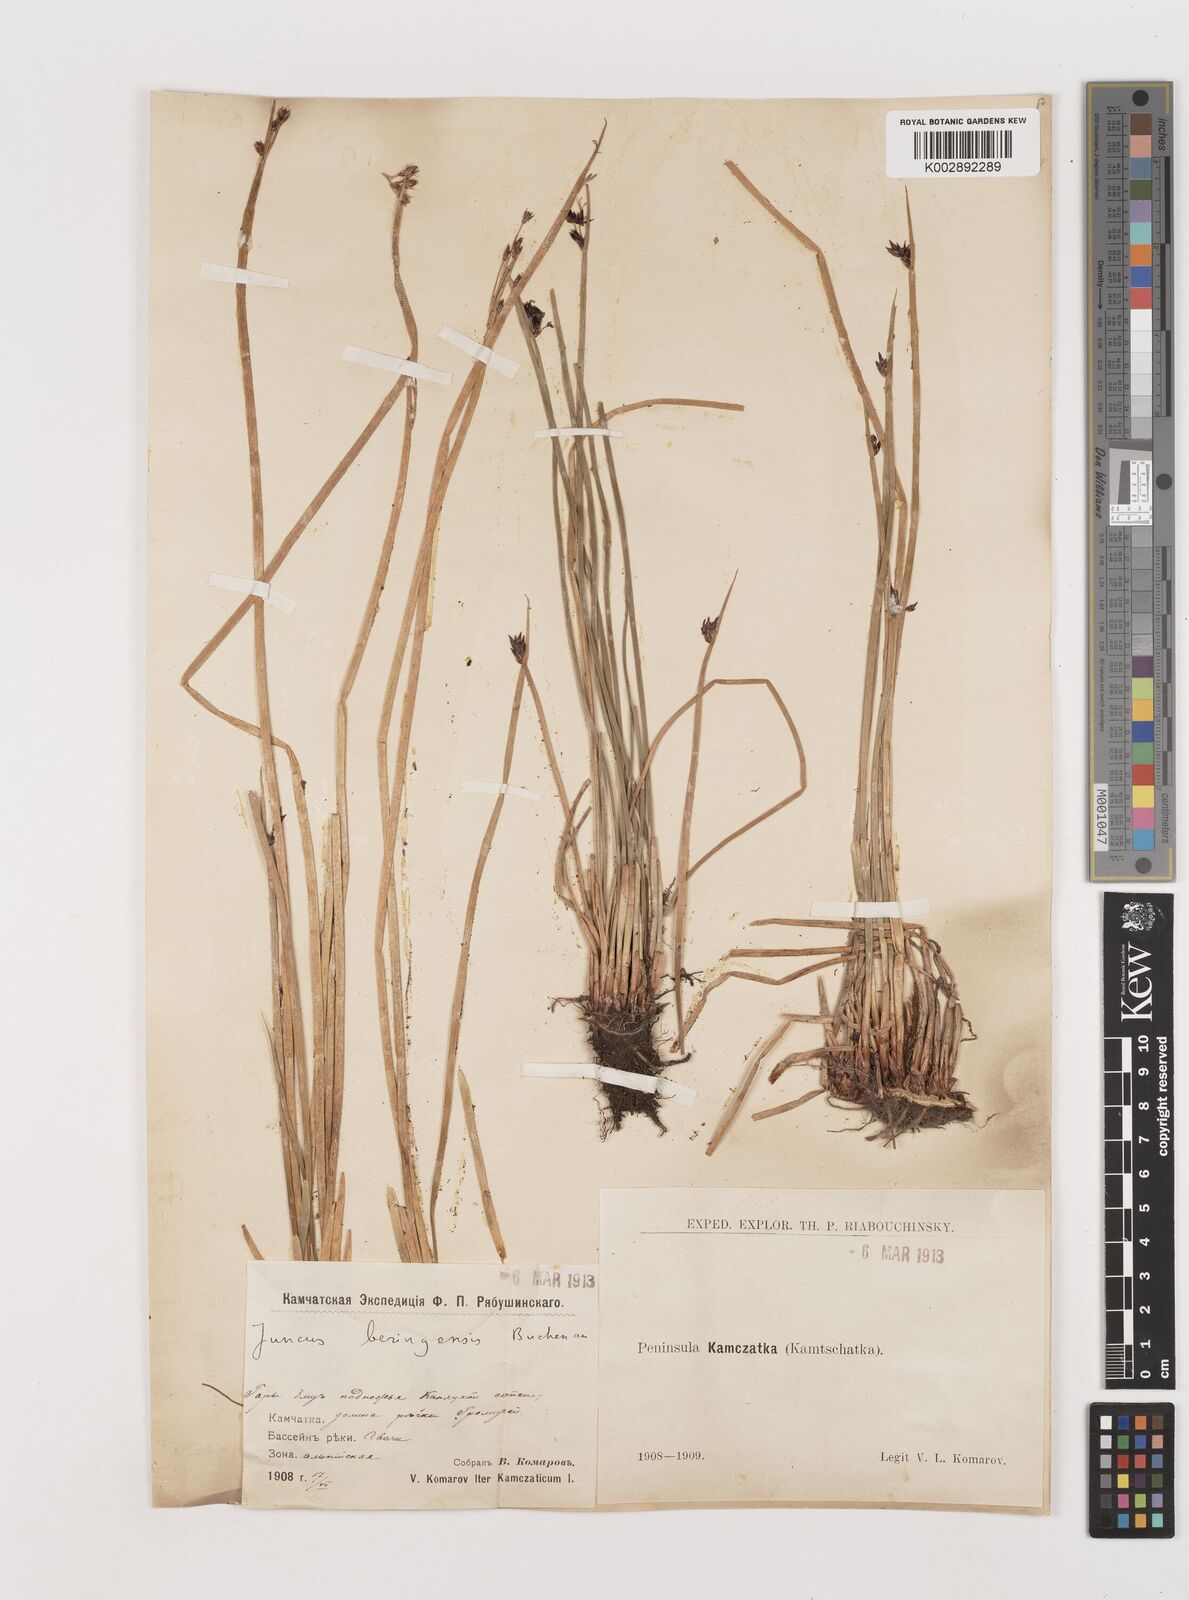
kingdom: Plantae
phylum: Tracheophyta
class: Liliopsida
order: Poales
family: Juncaceae
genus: Juncus
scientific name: Juncus beringensis
